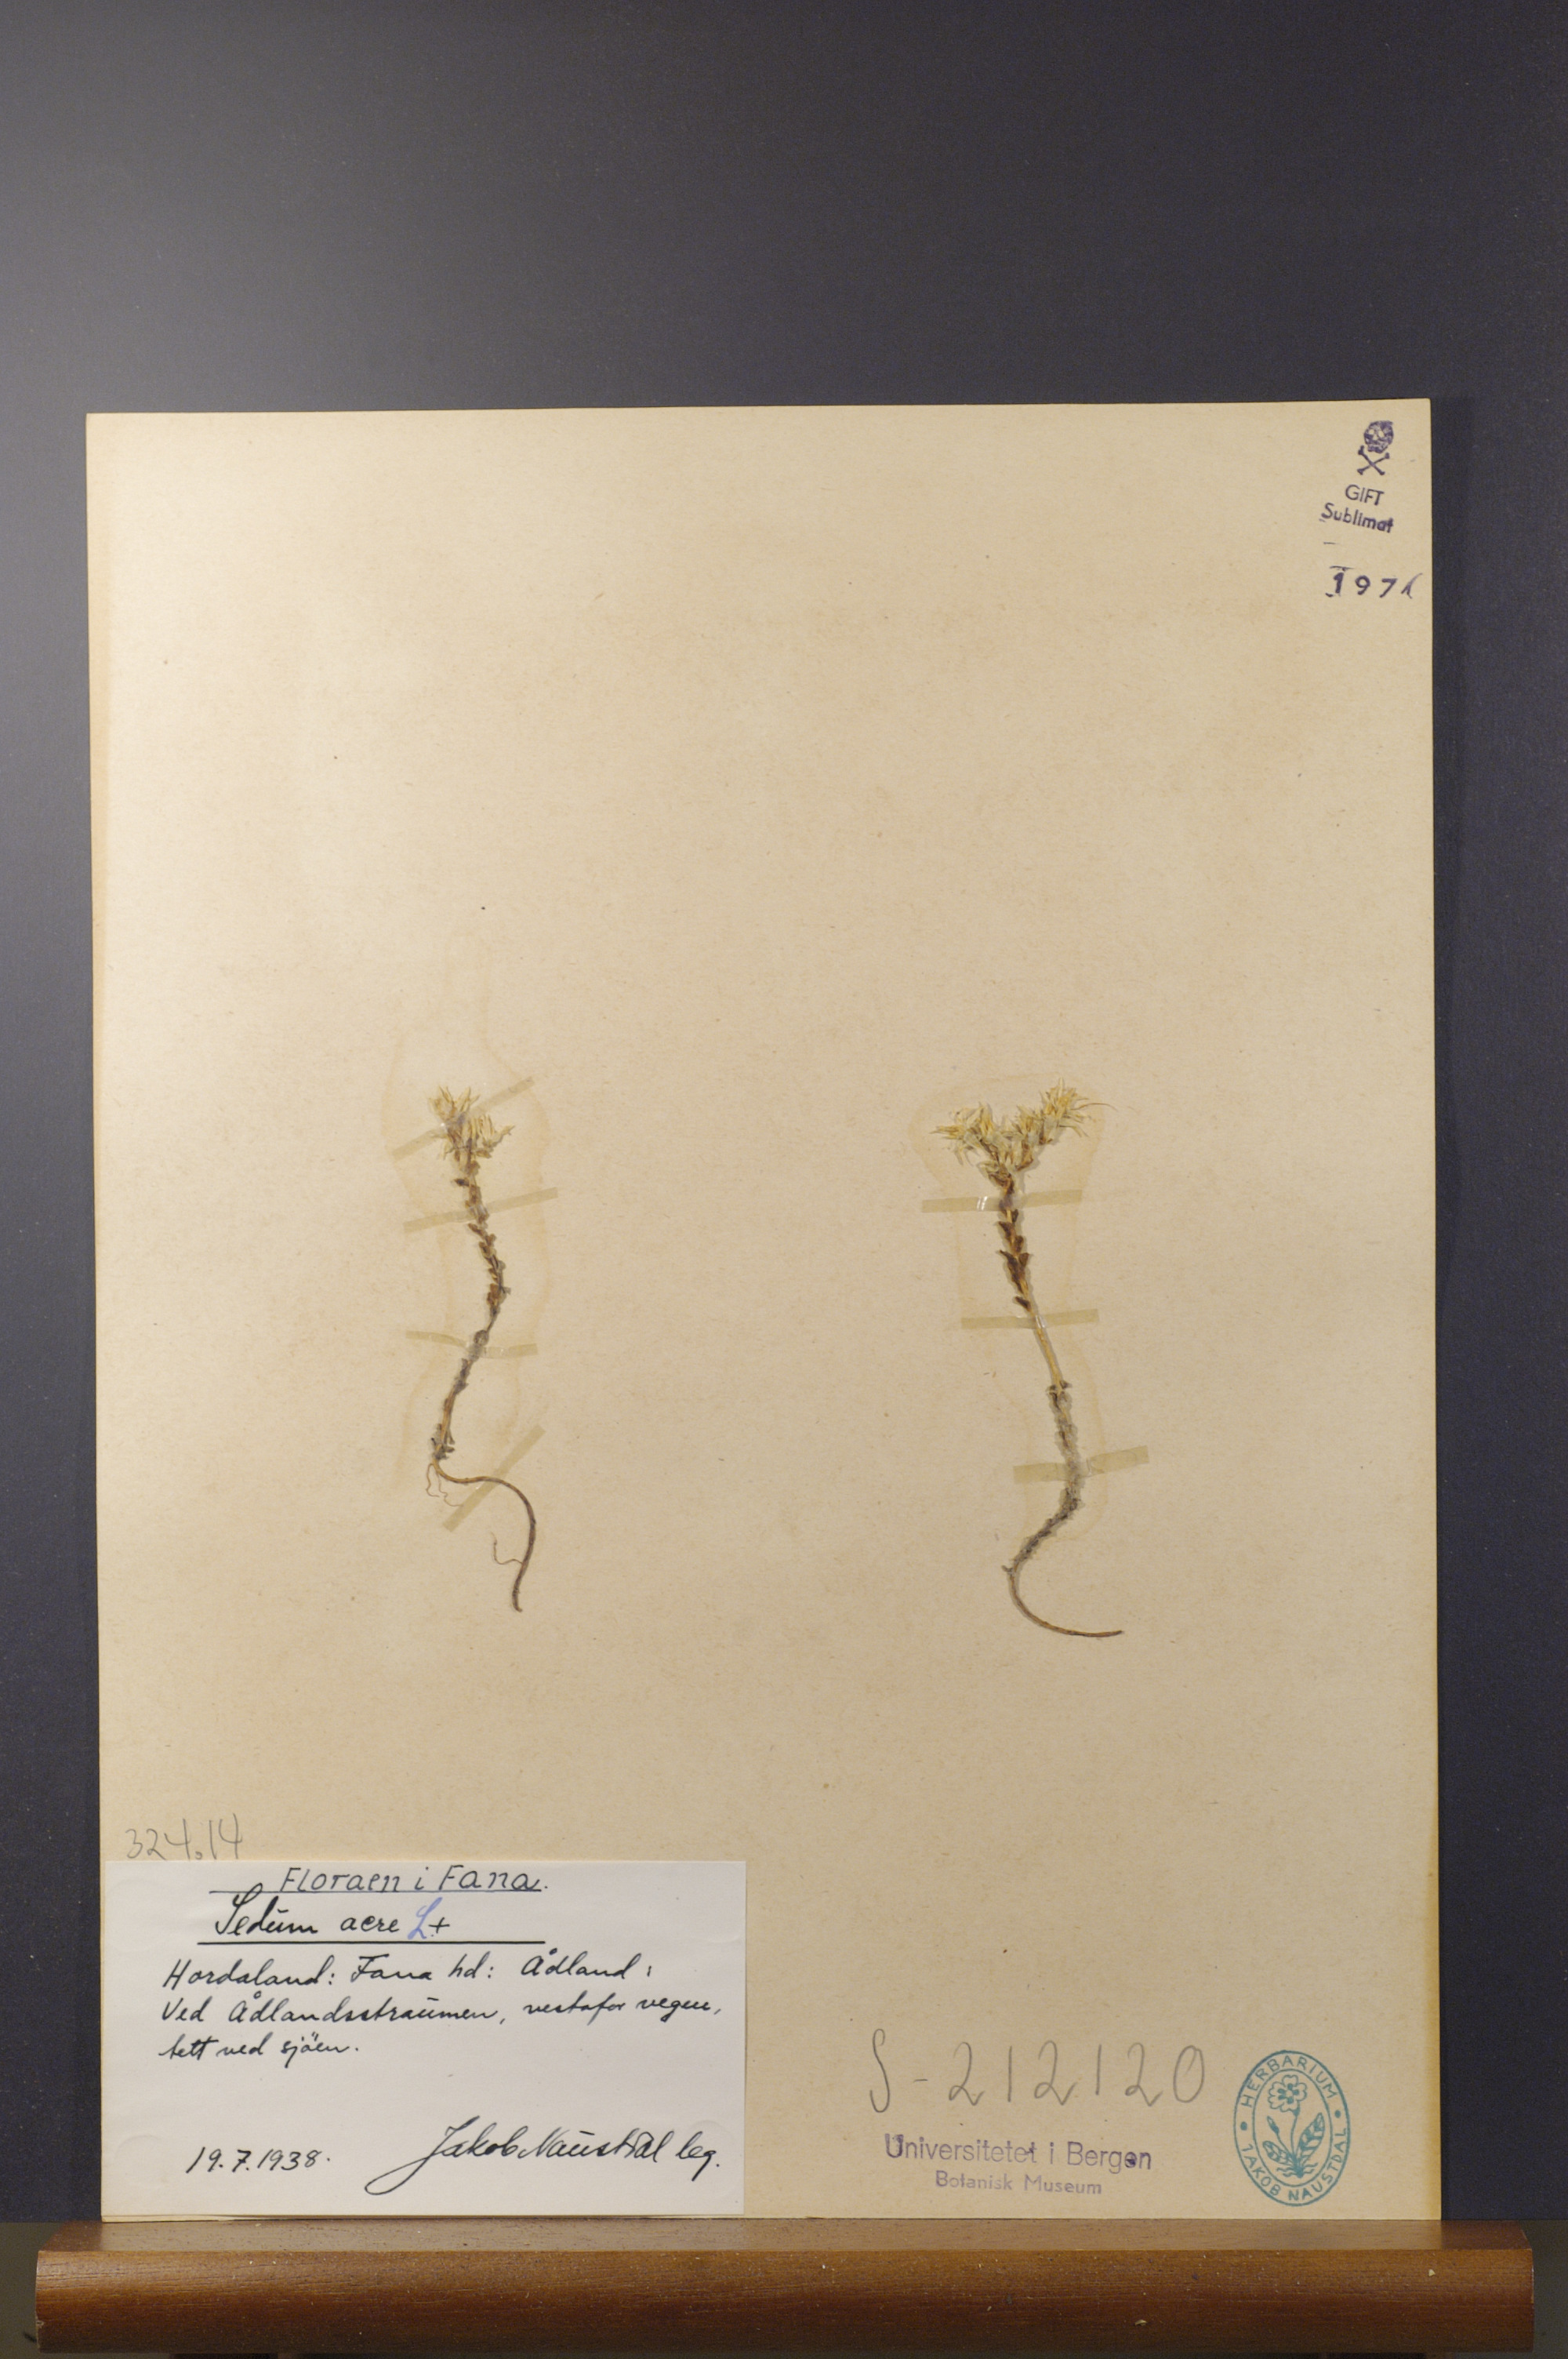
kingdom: Plantae
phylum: Tracheophyta
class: Magnoliopsida
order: Saxifragales
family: Crassulaceae
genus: Sedum
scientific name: Sedum acre
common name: Biting stonecrop
